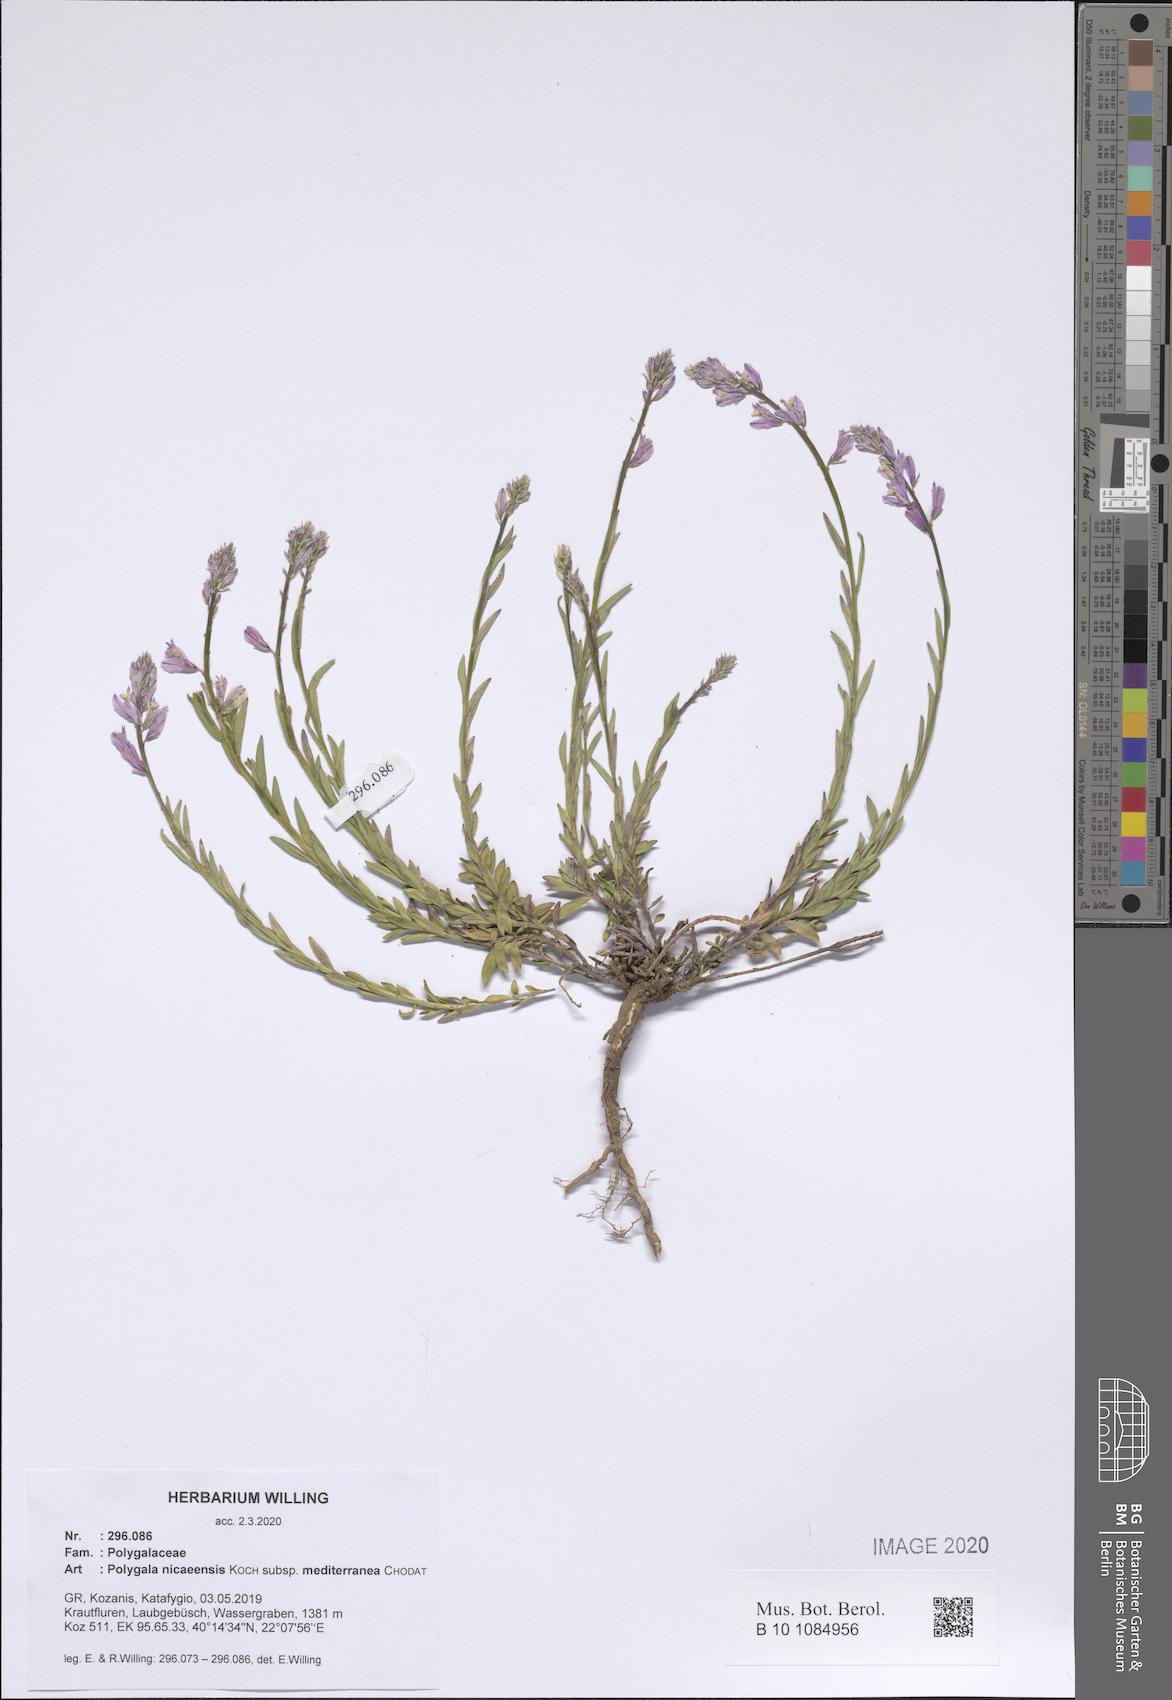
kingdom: Plantae
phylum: Tracheophyta
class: Magnoliopsida
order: Fabales
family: Polygalaceae
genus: Polygala
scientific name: Polygala nicaeensis
